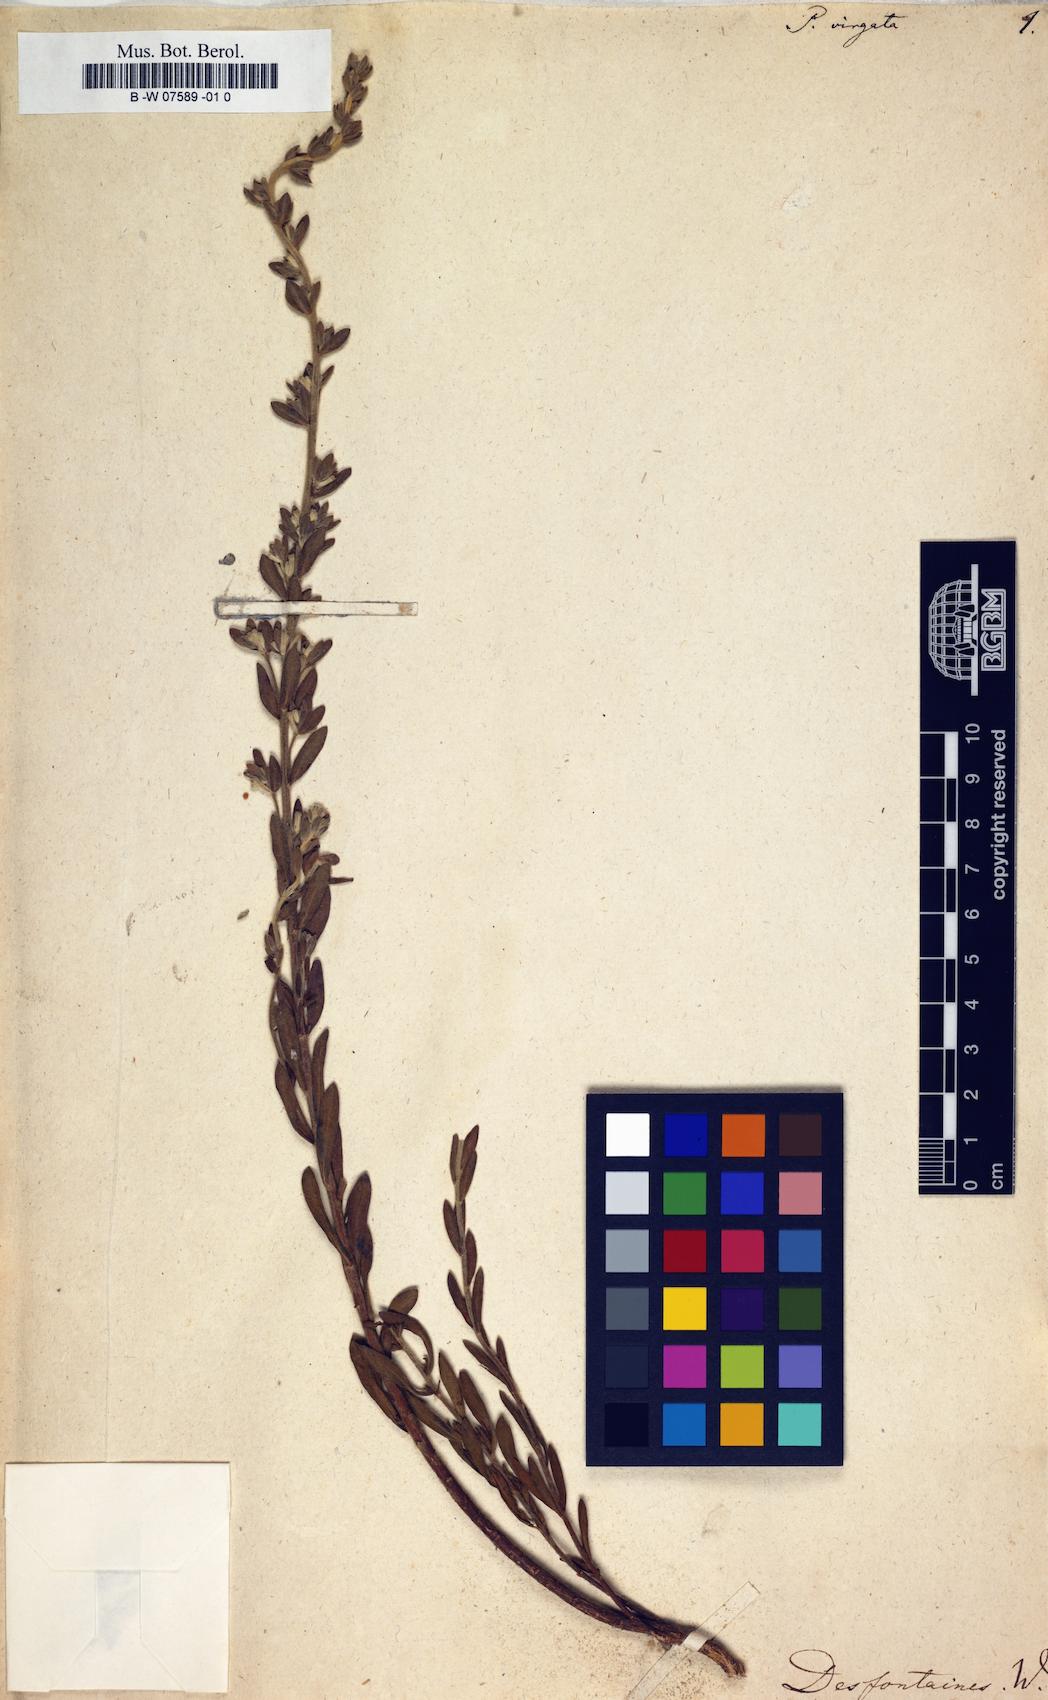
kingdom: Plantae
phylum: Tracheophyta
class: Magnoliopsida
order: Malvales
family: Thymelaeaceae
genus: Thymelaea
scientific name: Thymelaea virgata
